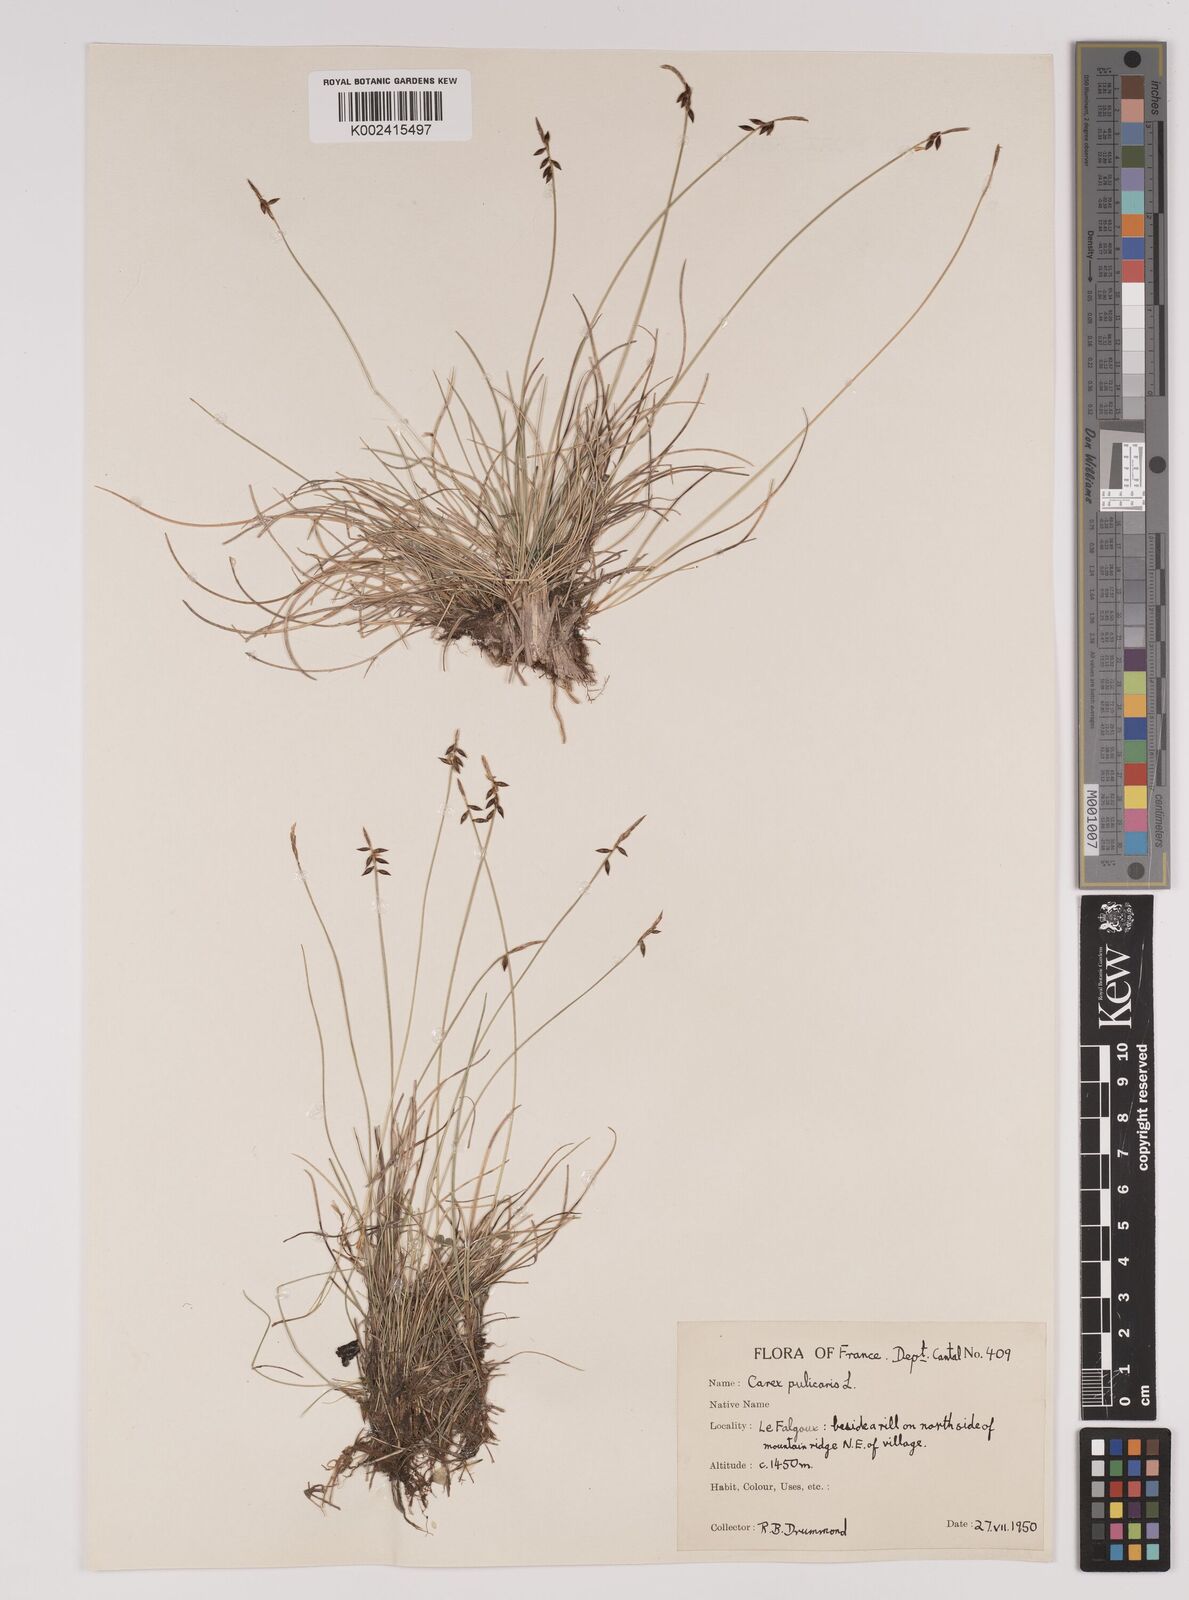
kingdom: Plantae
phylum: Tracheophyta
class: Liliopsida
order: Poales
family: Cyperaceae
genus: Carex
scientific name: Carex pulicaris
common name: Flea sedge
